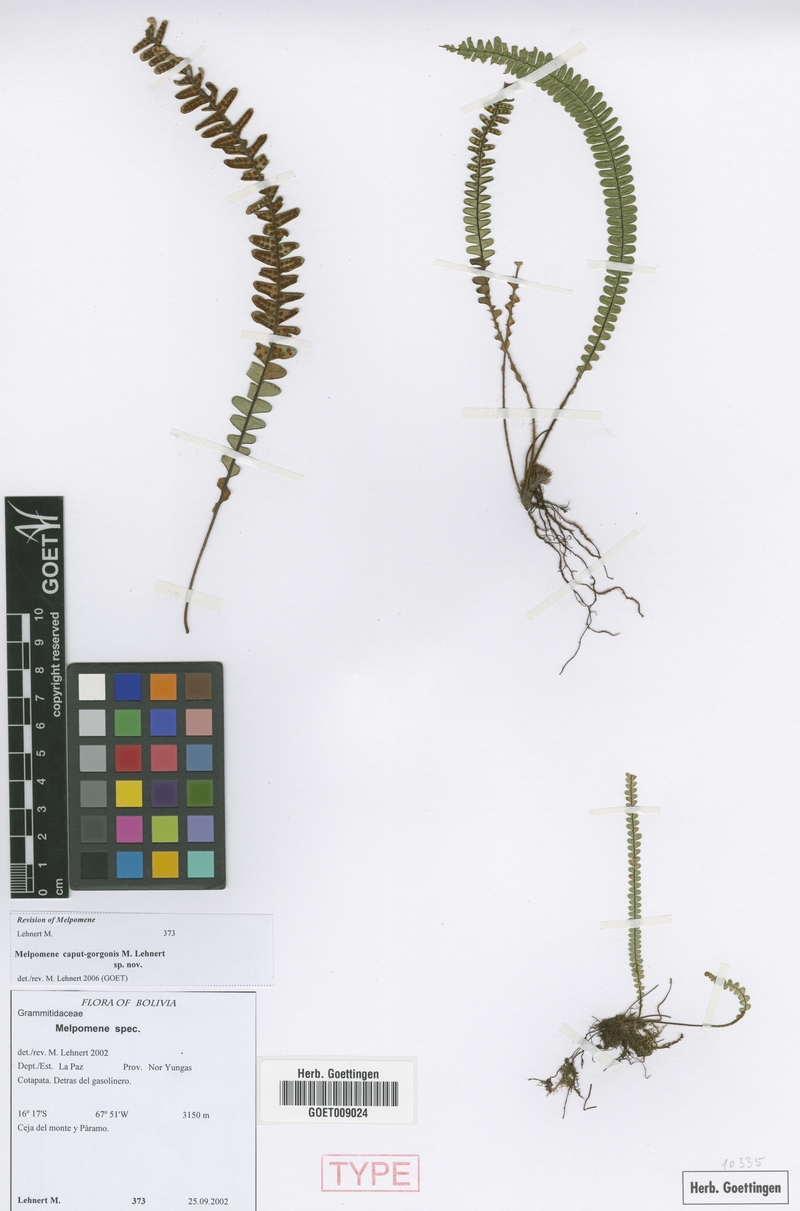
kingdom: Plantae
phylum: Tracheophyta
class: Polypodiopsida
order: Polypodiales
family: Polypodiaceae
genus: Melpomene
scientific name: Melpomene caput-gorgonis
